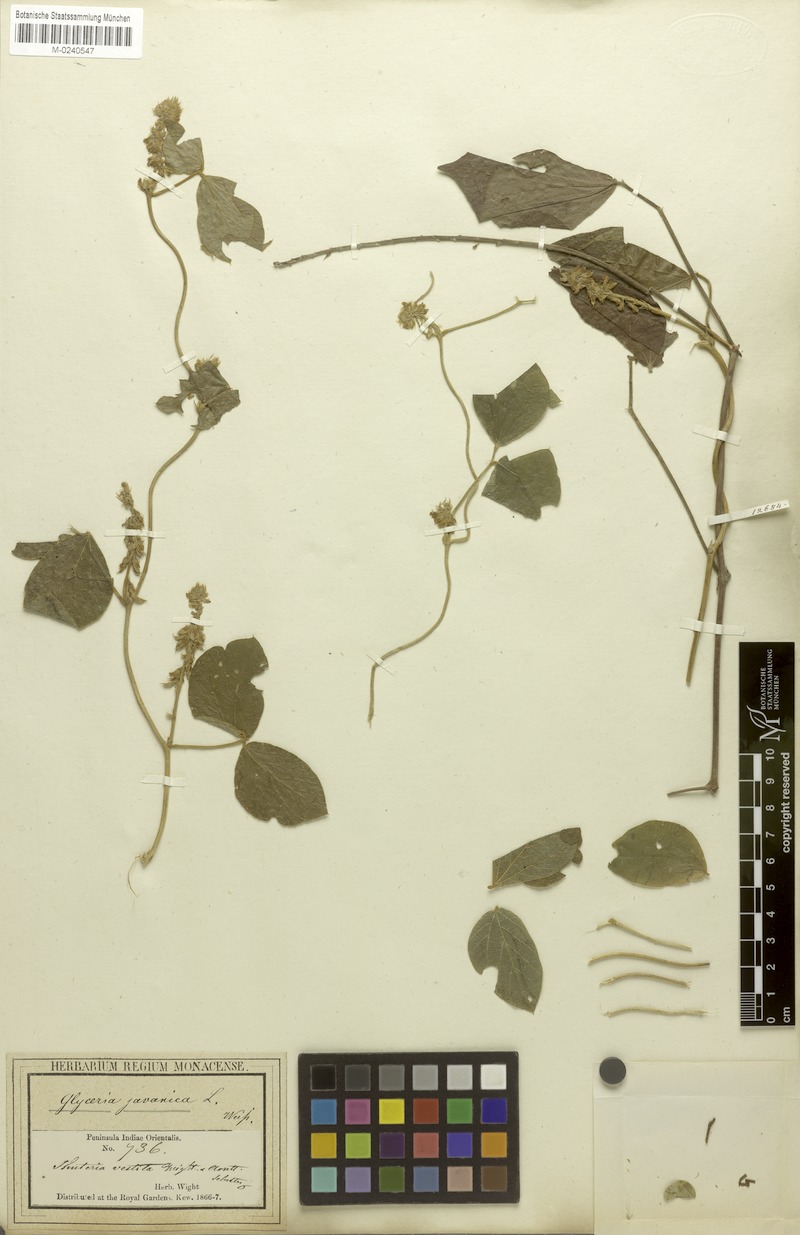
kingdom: Plantae
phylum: Tracheophyta
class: Magnoliopsida
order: Fabales
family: Fabaceae
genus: Neonotonia
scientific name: Neonotonia wightii
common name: Perennial soybean
